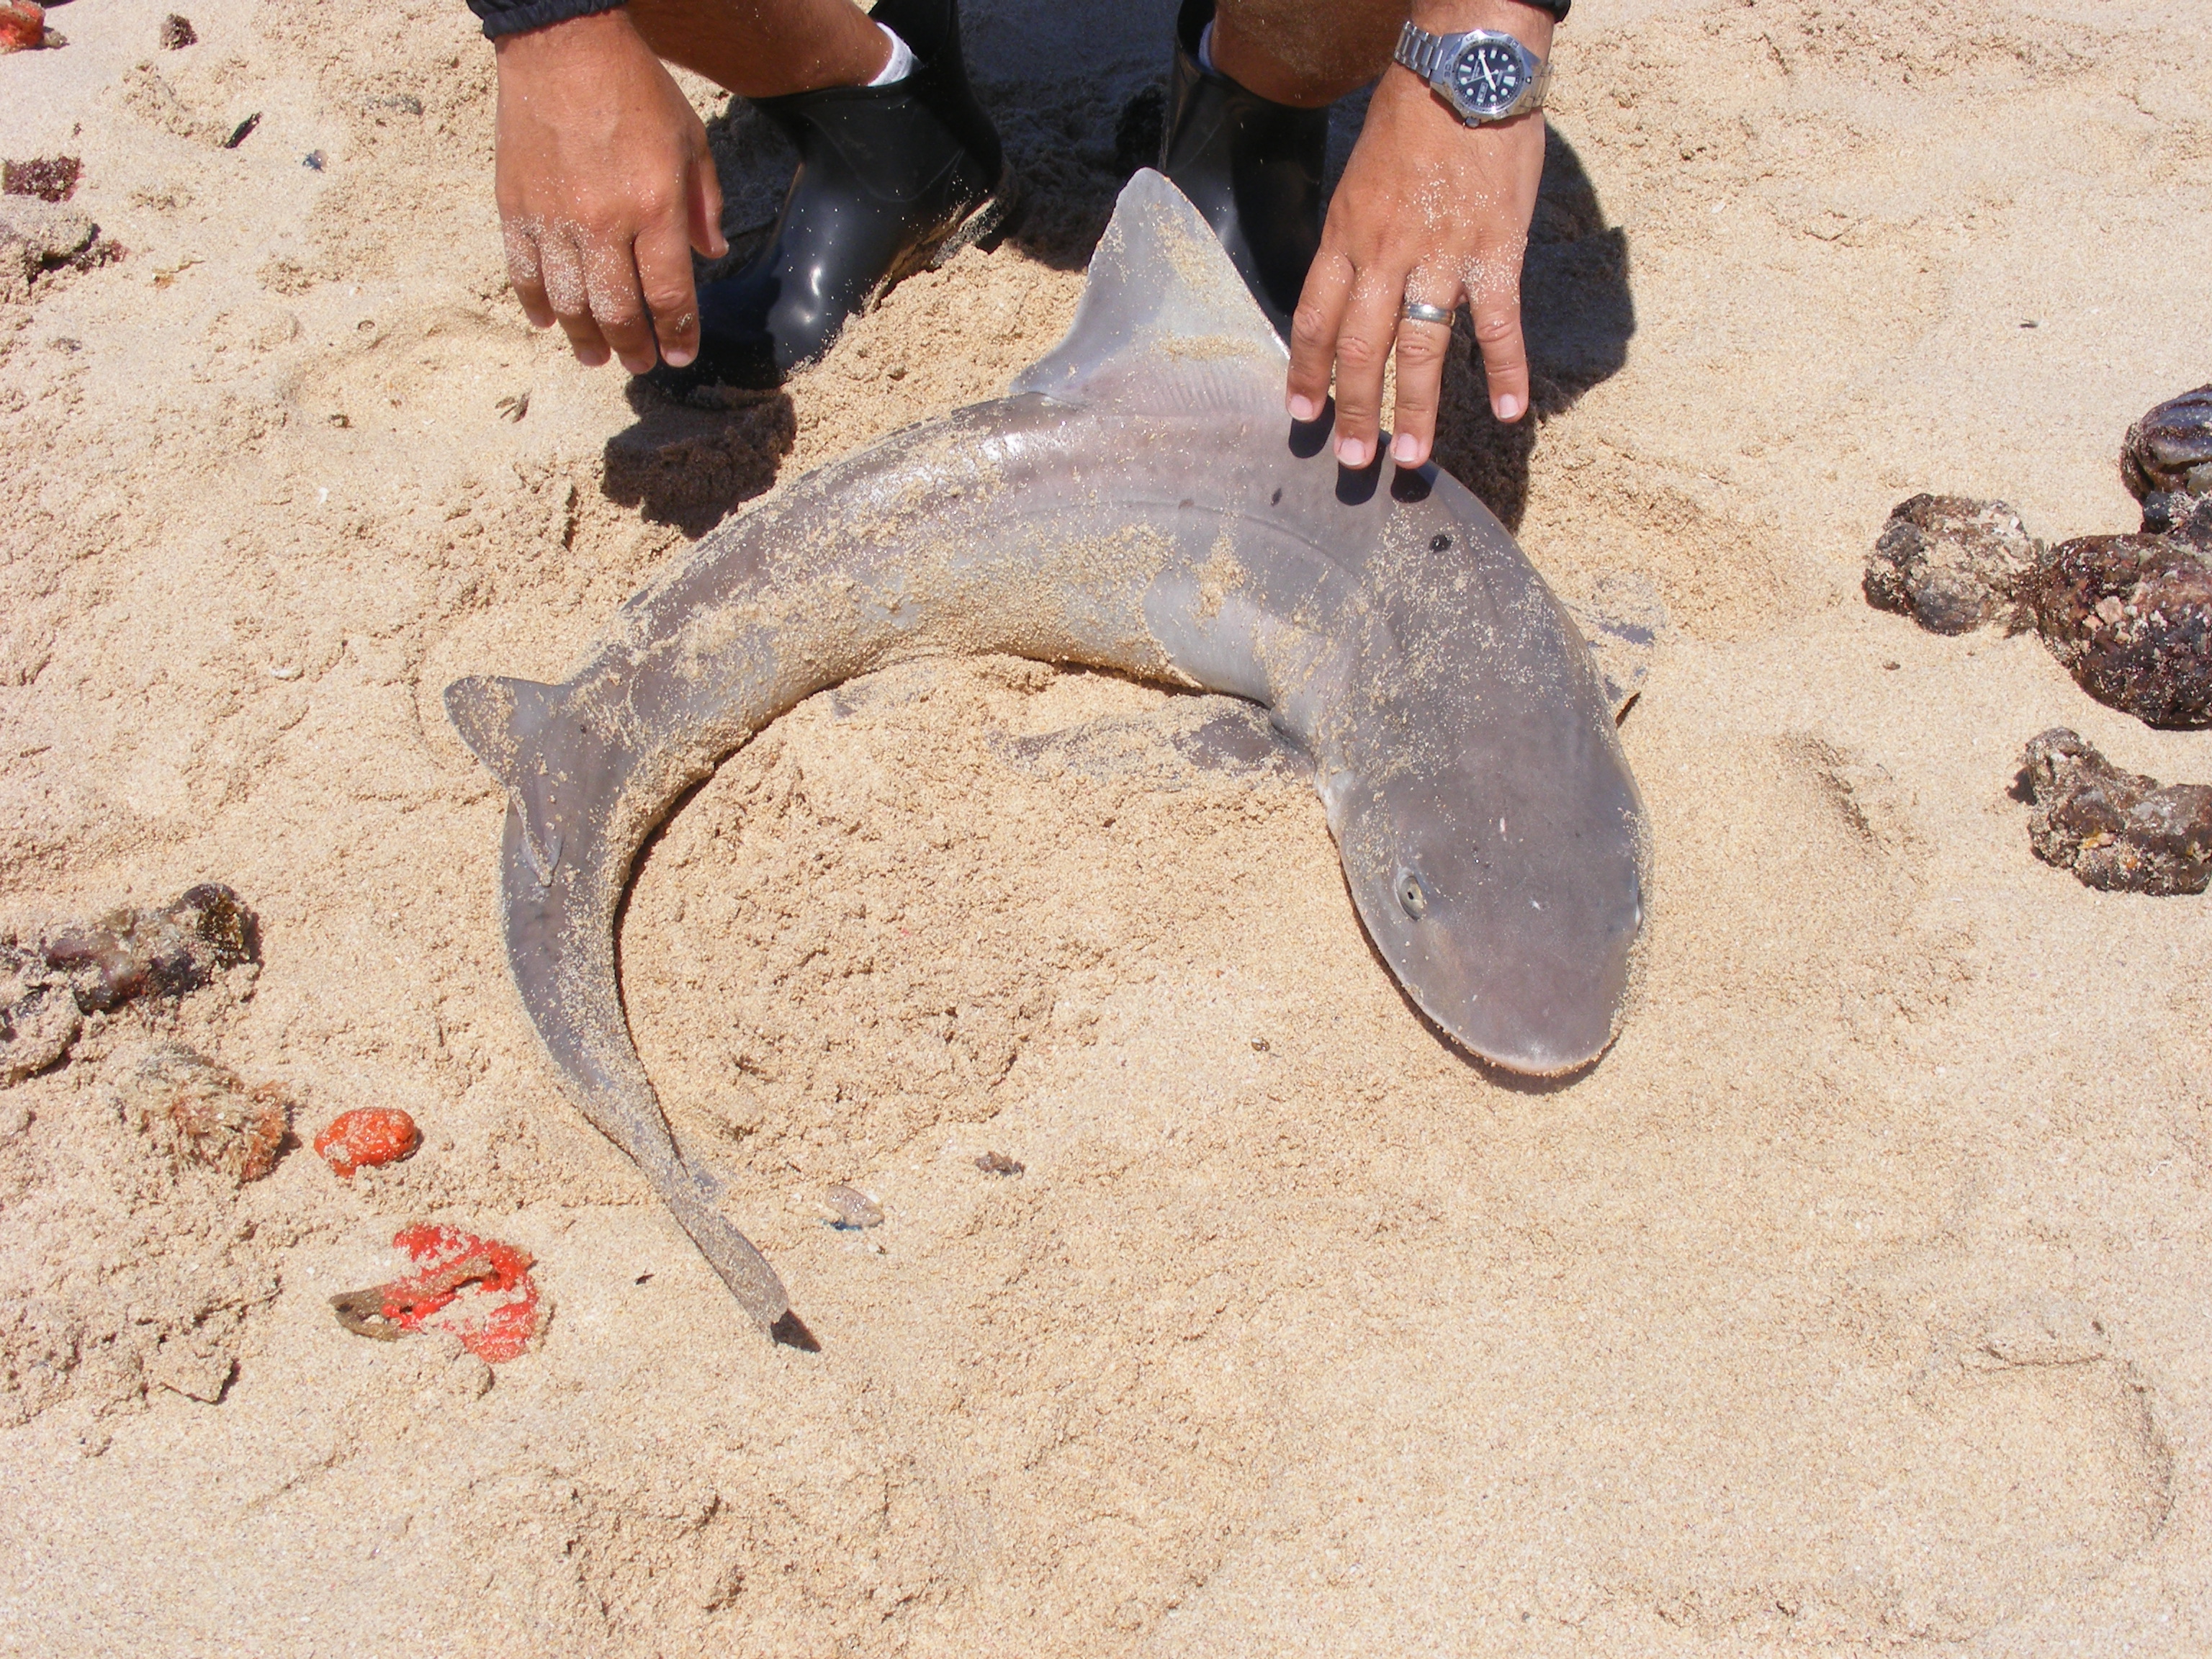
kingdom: Animalia
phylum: Chordata
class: Elasmobranchii
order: Carcharhiniformes
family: Triakidae
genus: Triakis
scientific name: Triakis megalopterus
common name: Spotted gully shark
